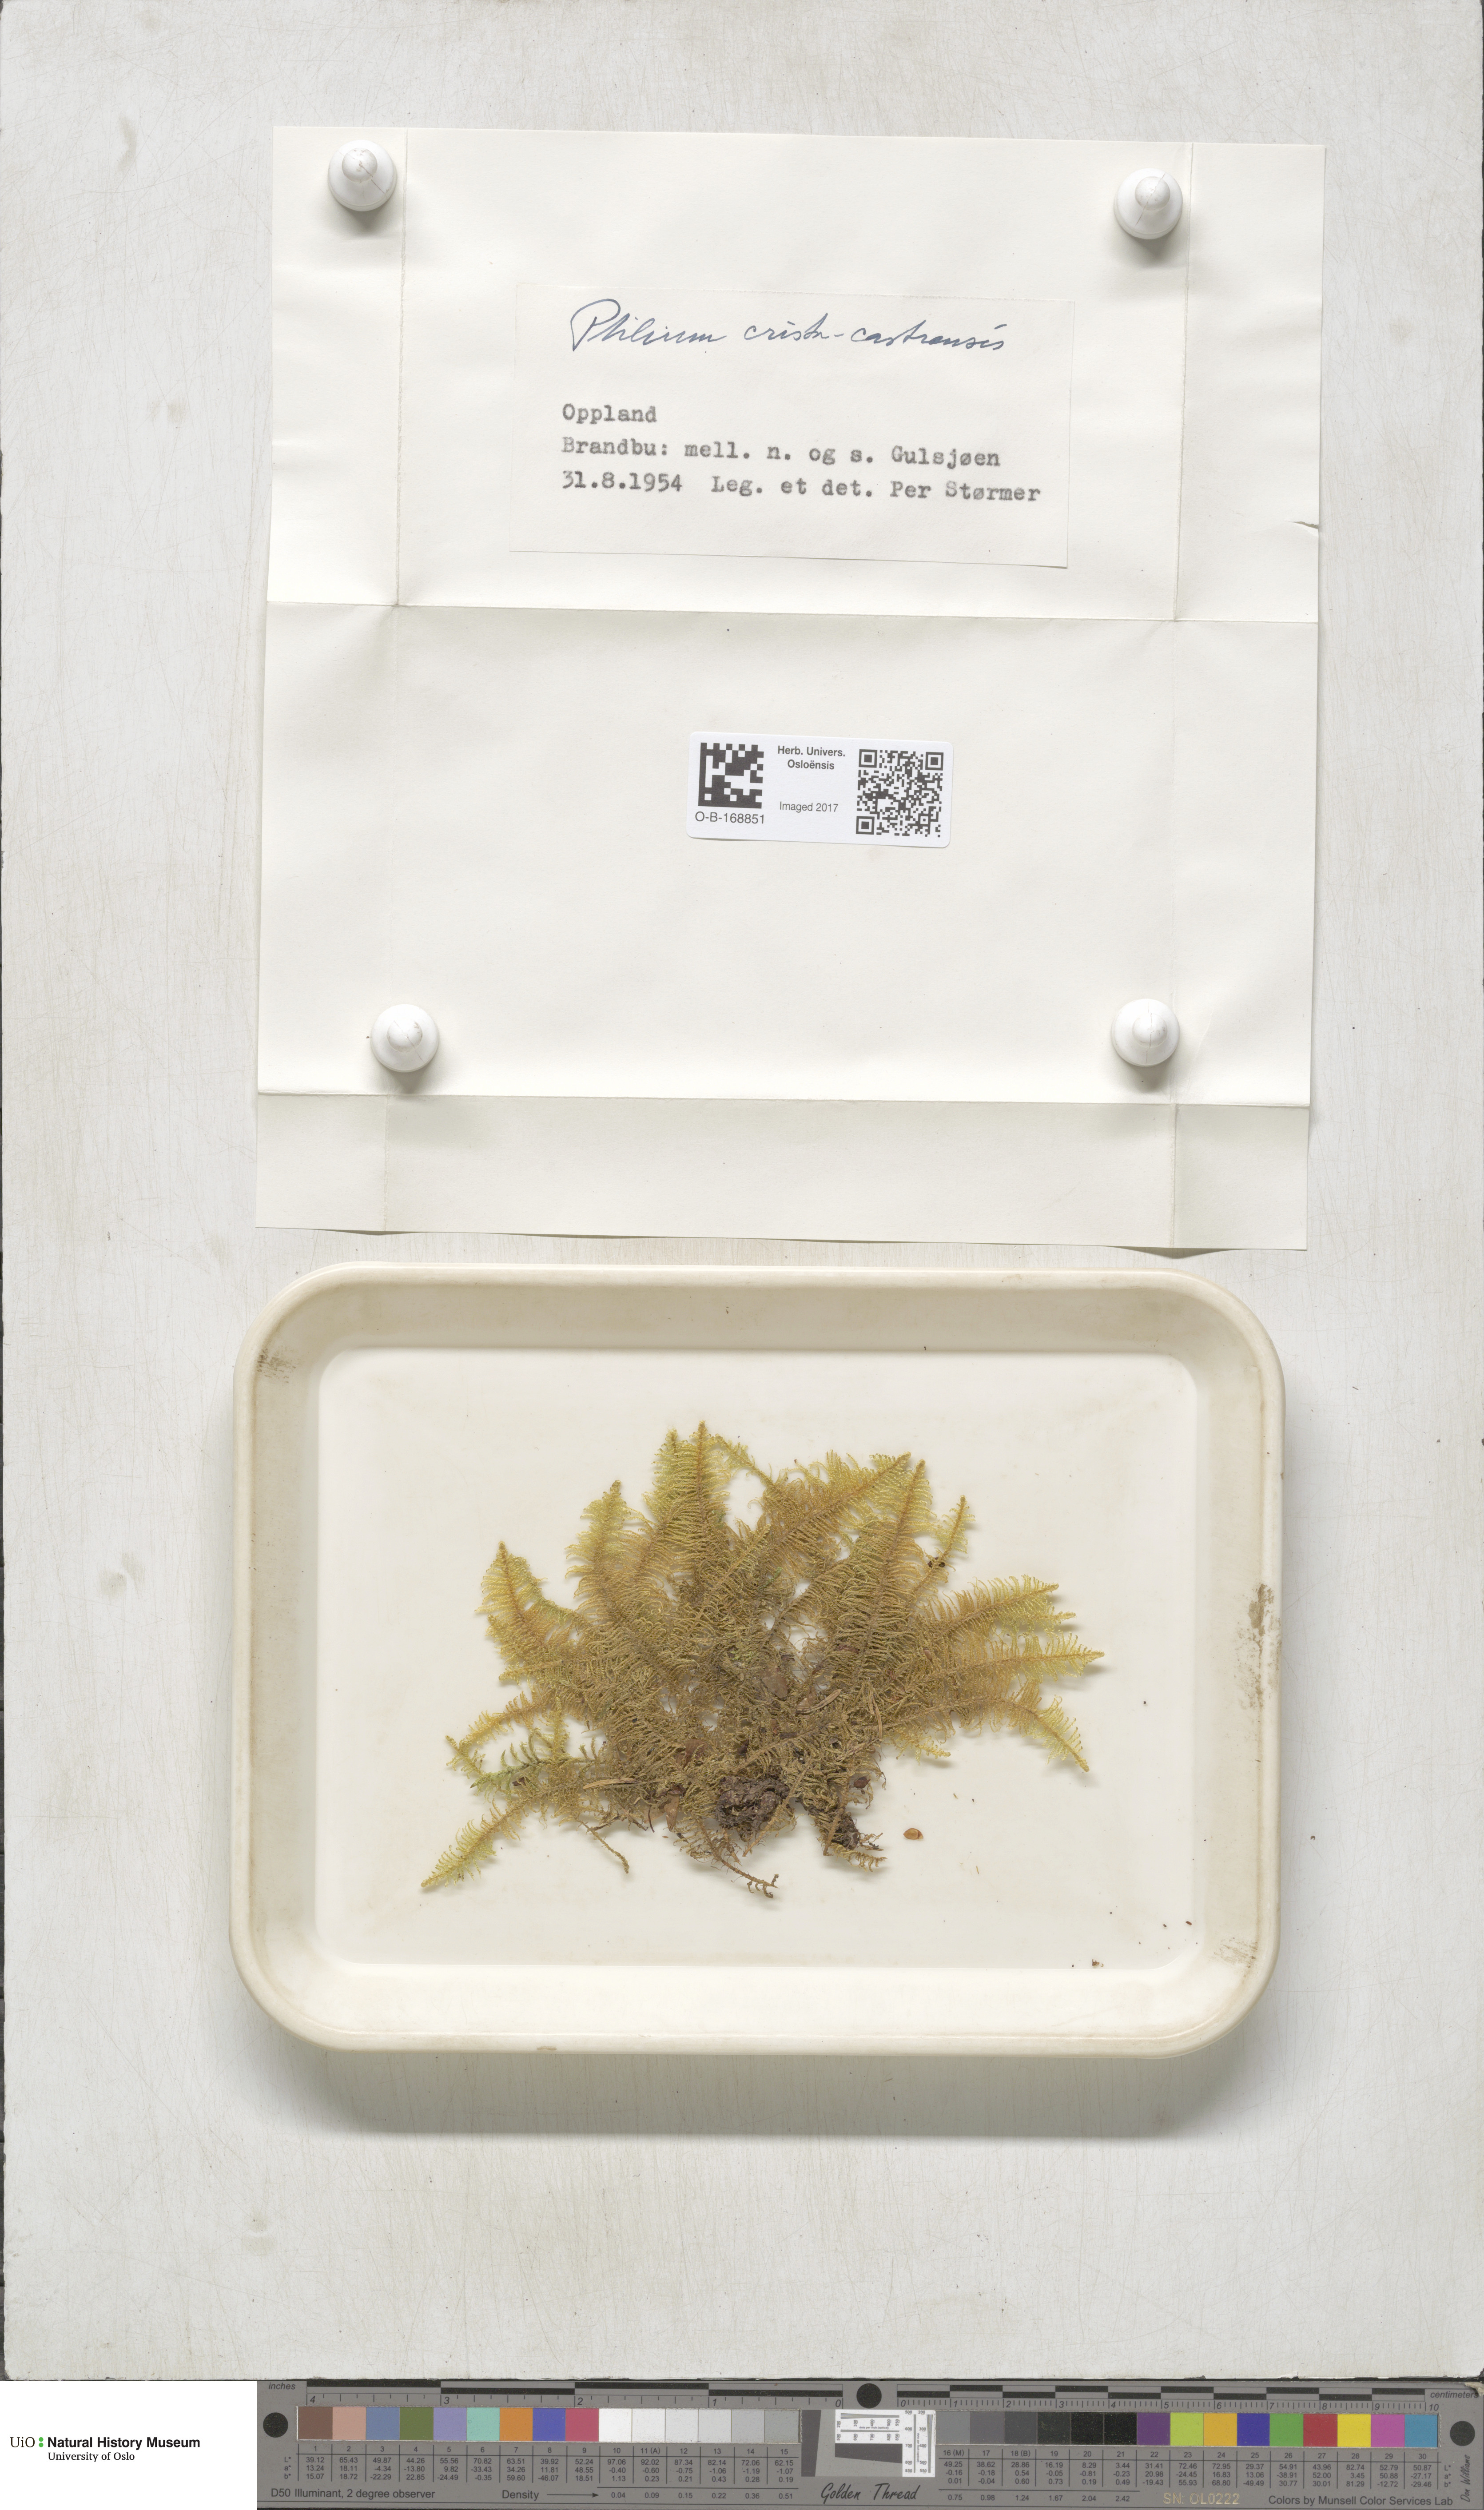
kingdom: Plantae
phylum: Bryophyta
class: Bryopsida
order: Hypnales
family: Pylaisiaceae
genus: Ptilium
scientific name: Ptilium crista-castrensis
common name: Knight's plume moss
